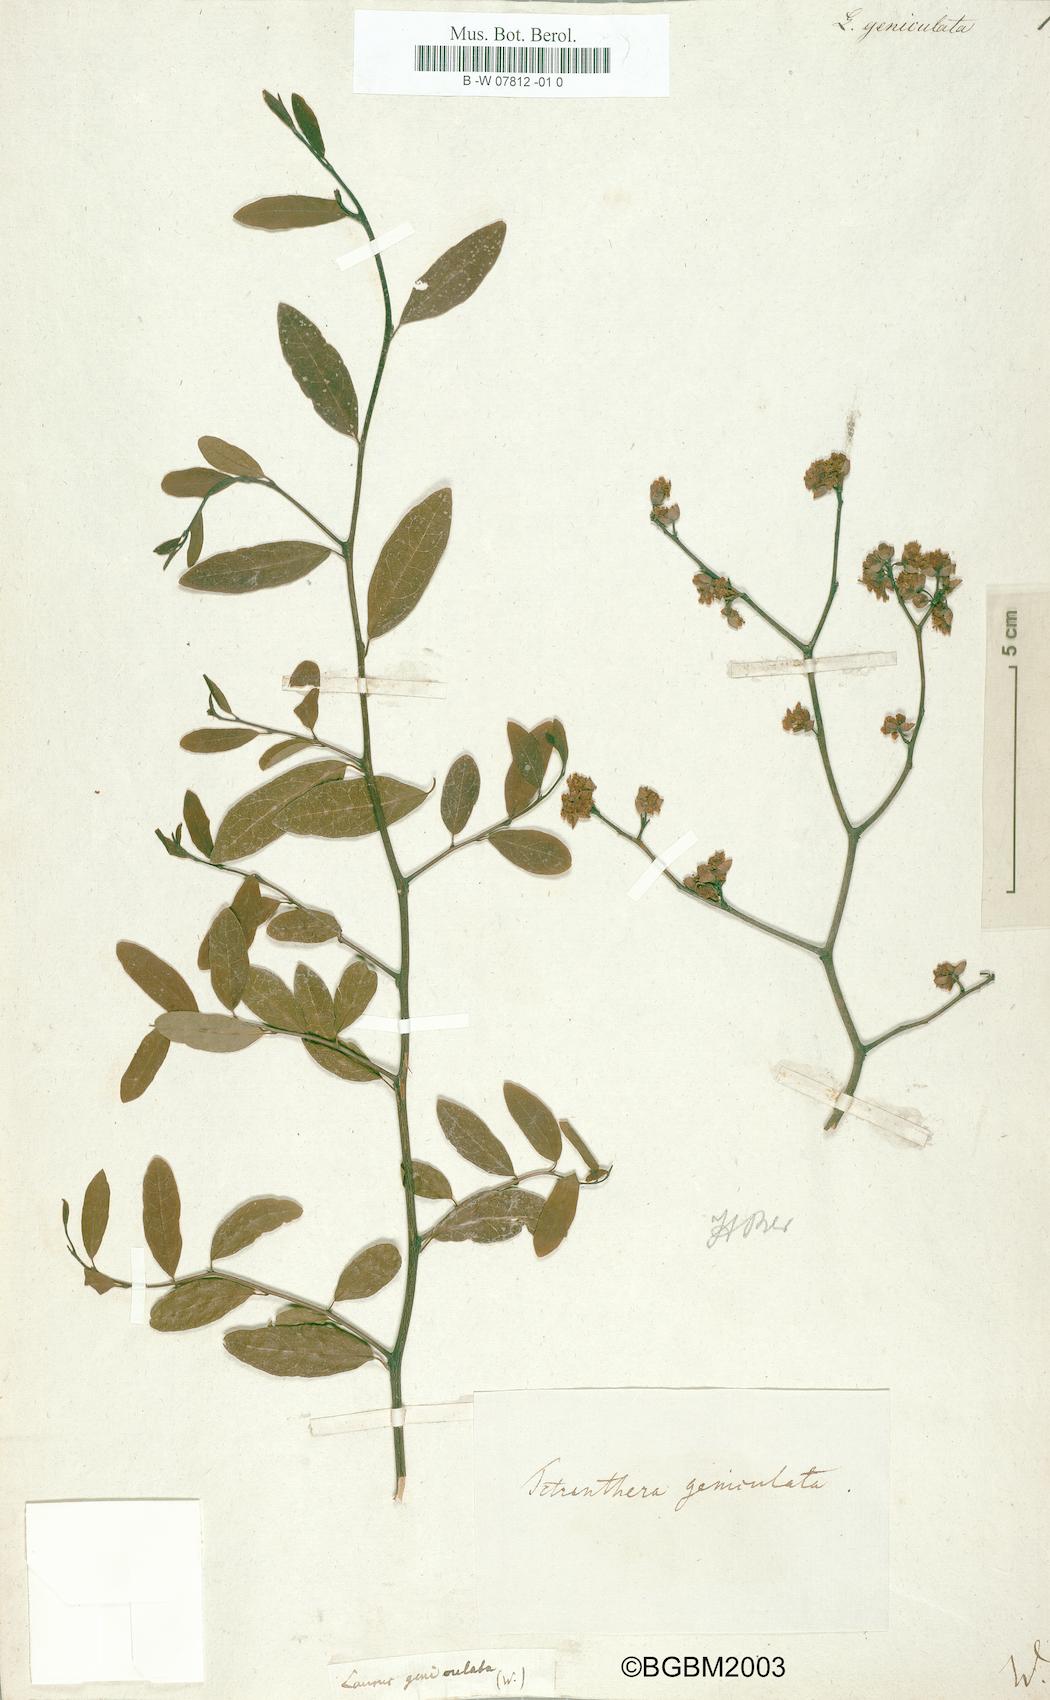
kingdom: Plantae
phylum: Tracheophyta
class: Magnoliopsida
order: Laurales
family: Lauraceae
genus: Litsea
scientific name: Litsea aestivalis
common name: Pondspice
